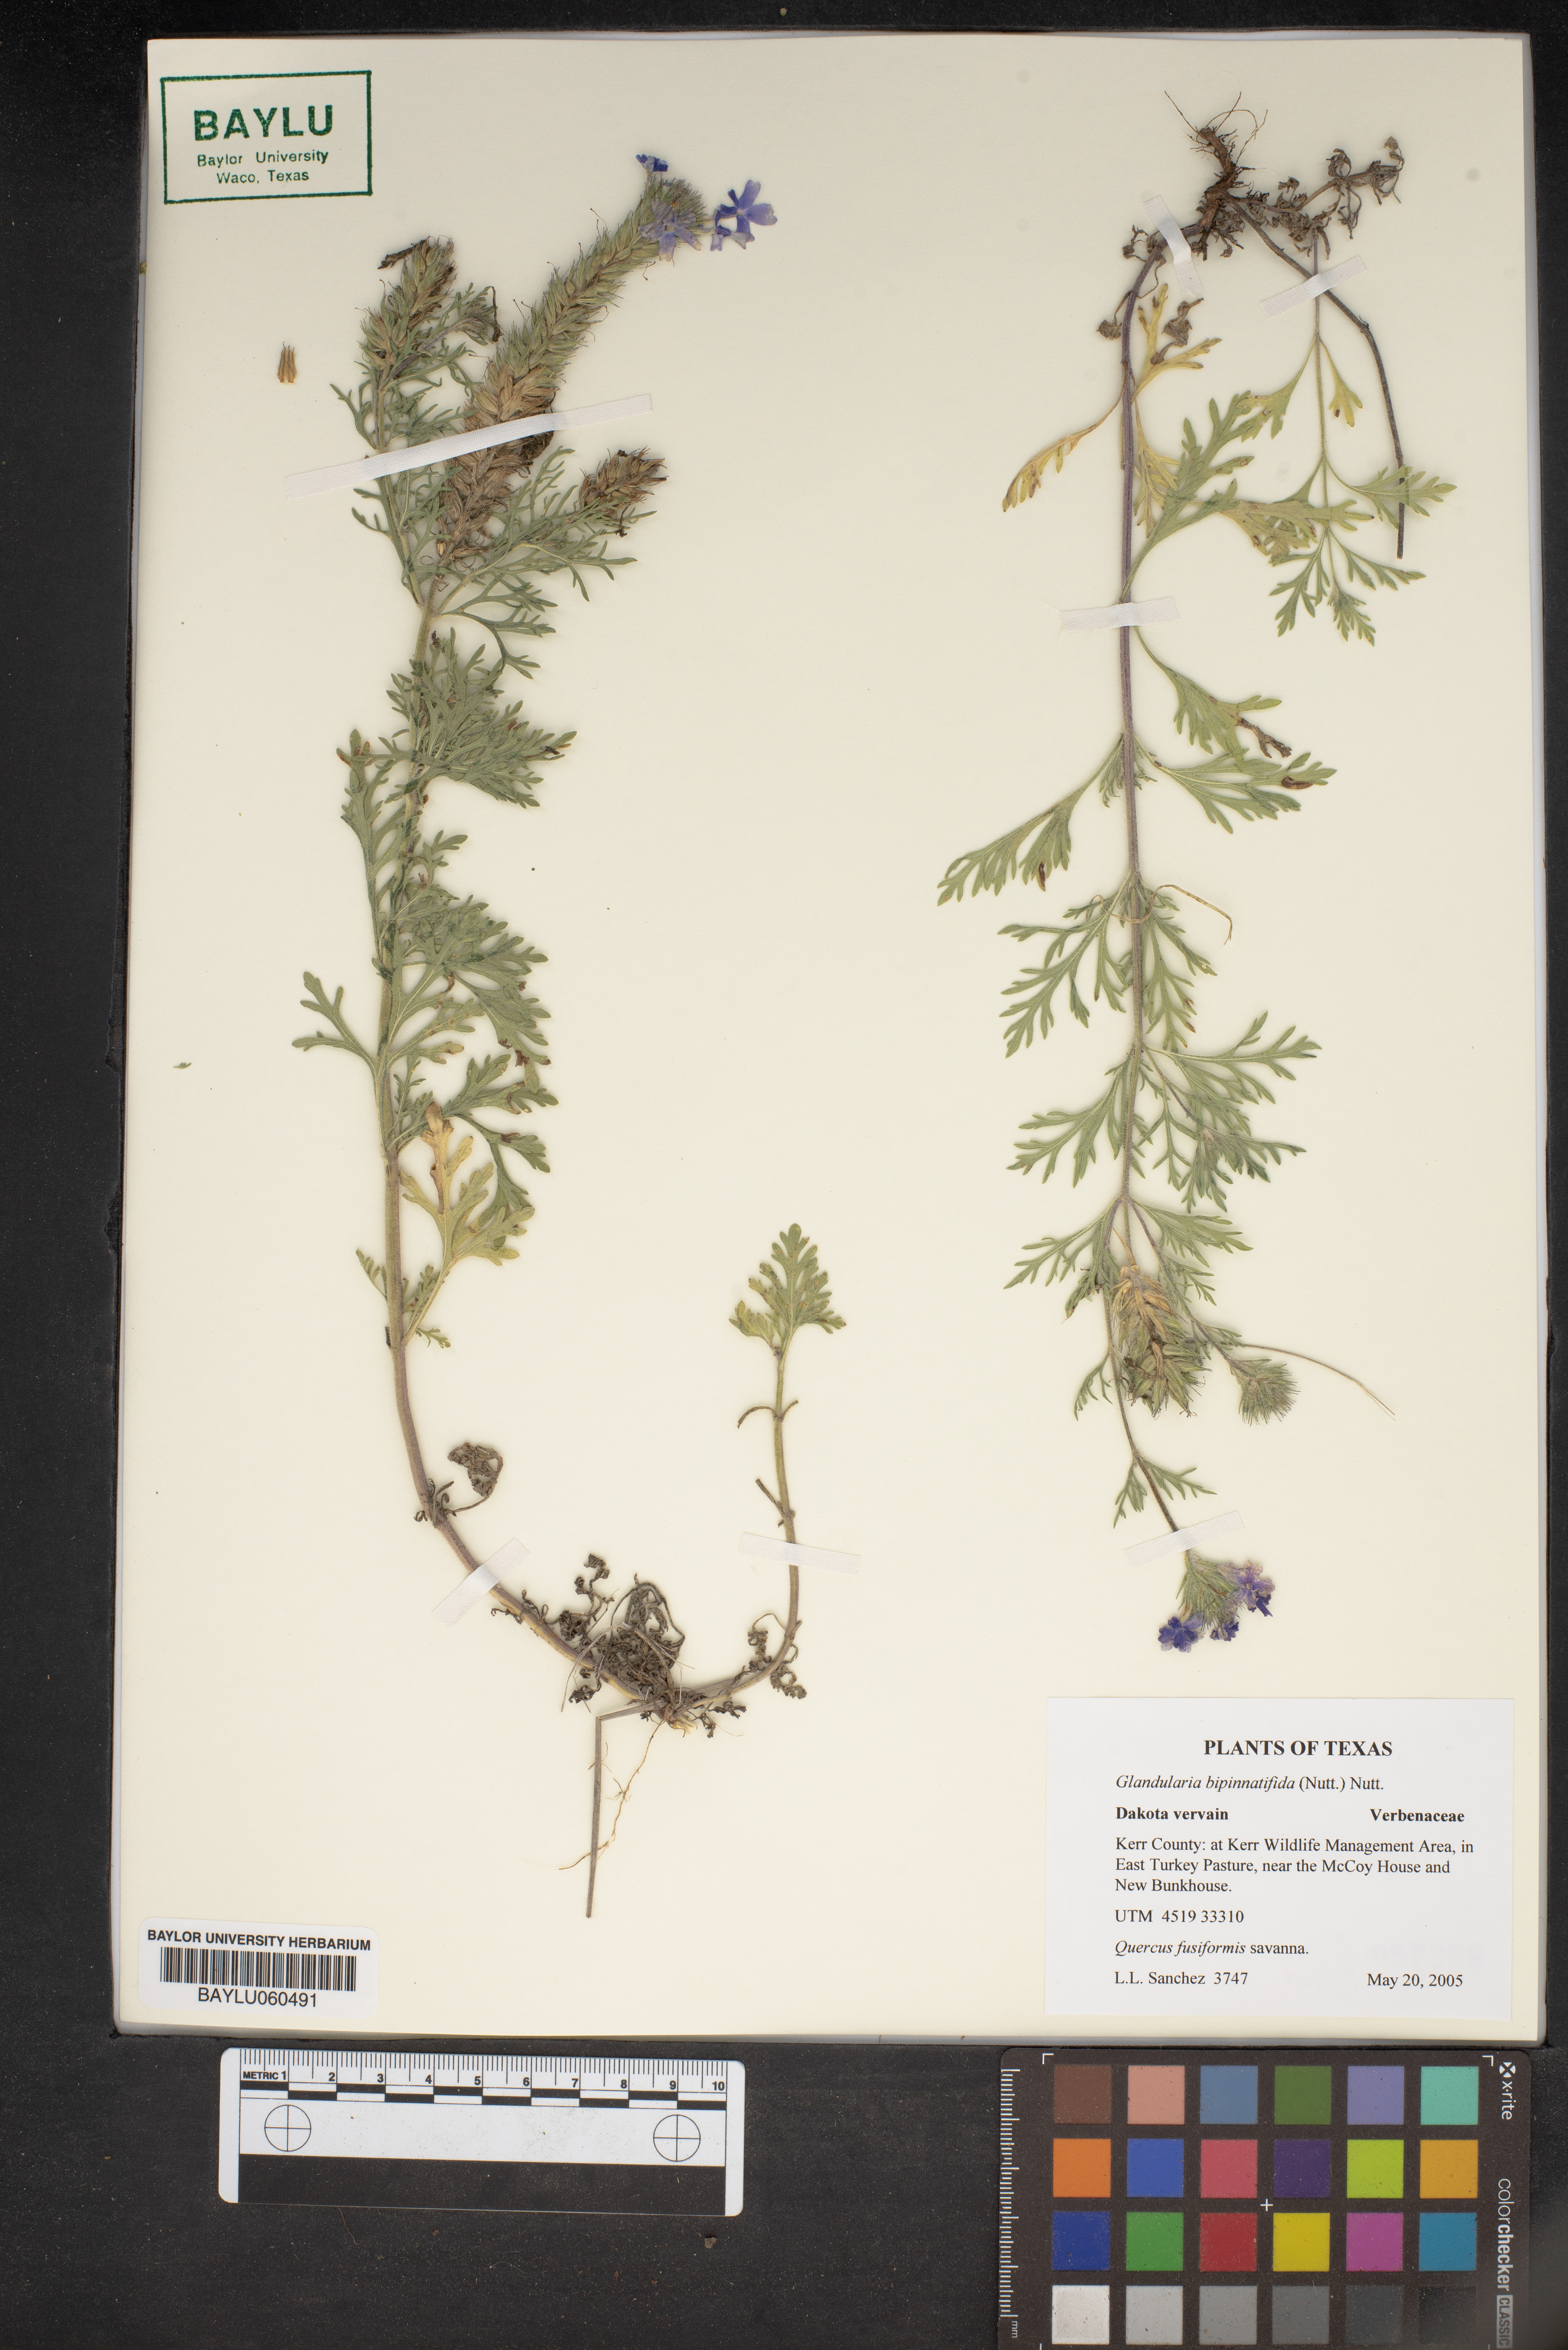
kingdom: Plantae
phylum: Tracheophyta
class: Magnoliopsida
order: Lamiales
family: Verbenaceae
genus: Verbena
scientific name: Verbena bipinnatifida
